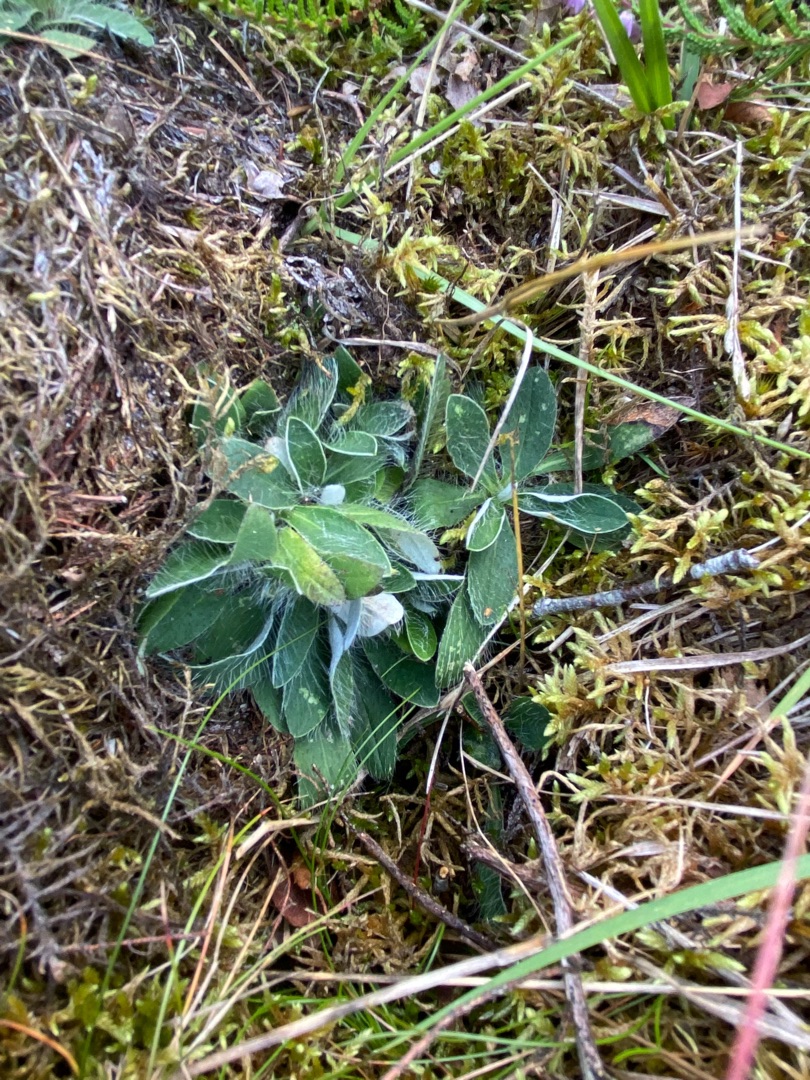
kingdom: Plantae
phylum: Tracheophyta
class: Magnoliopsida
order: Asterales
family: Asteraceae
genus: Pilosella
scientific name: Pilosella officinarum
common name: Håret høgeurt
